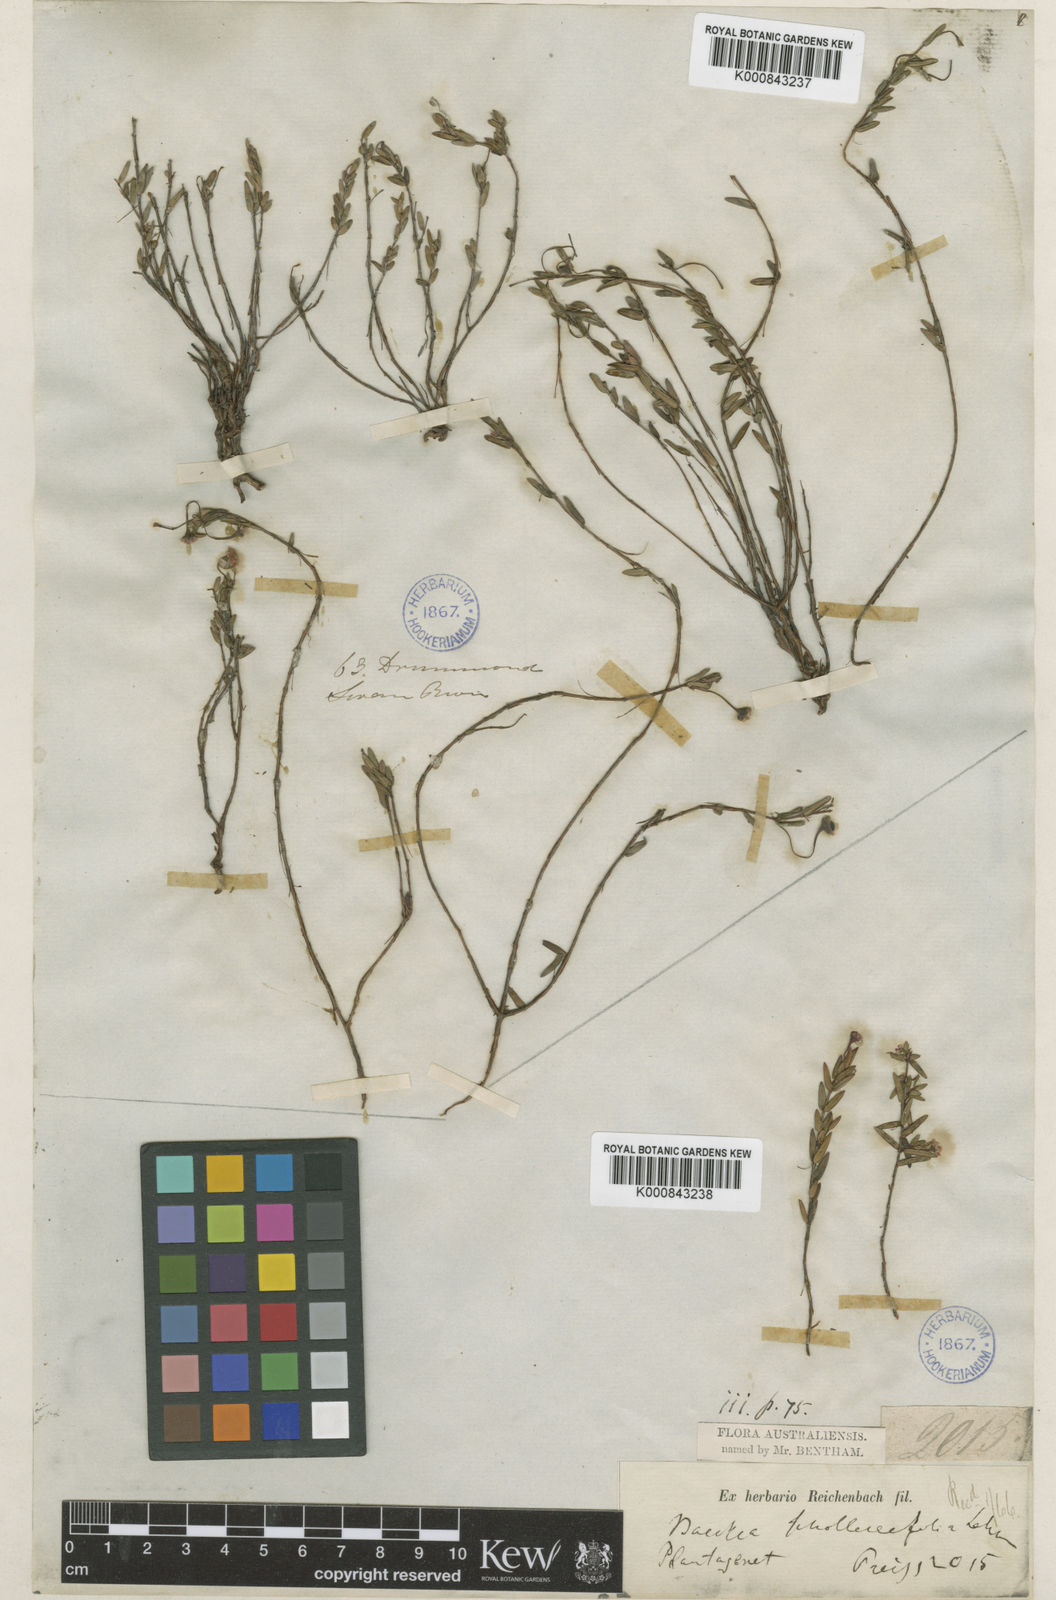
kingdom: Plantae
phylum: Tracheophyta
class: Magnoliopsida
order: Myrtales
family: Myrtaceae
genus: Rinzia
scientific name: Rinzia schollerifolia
